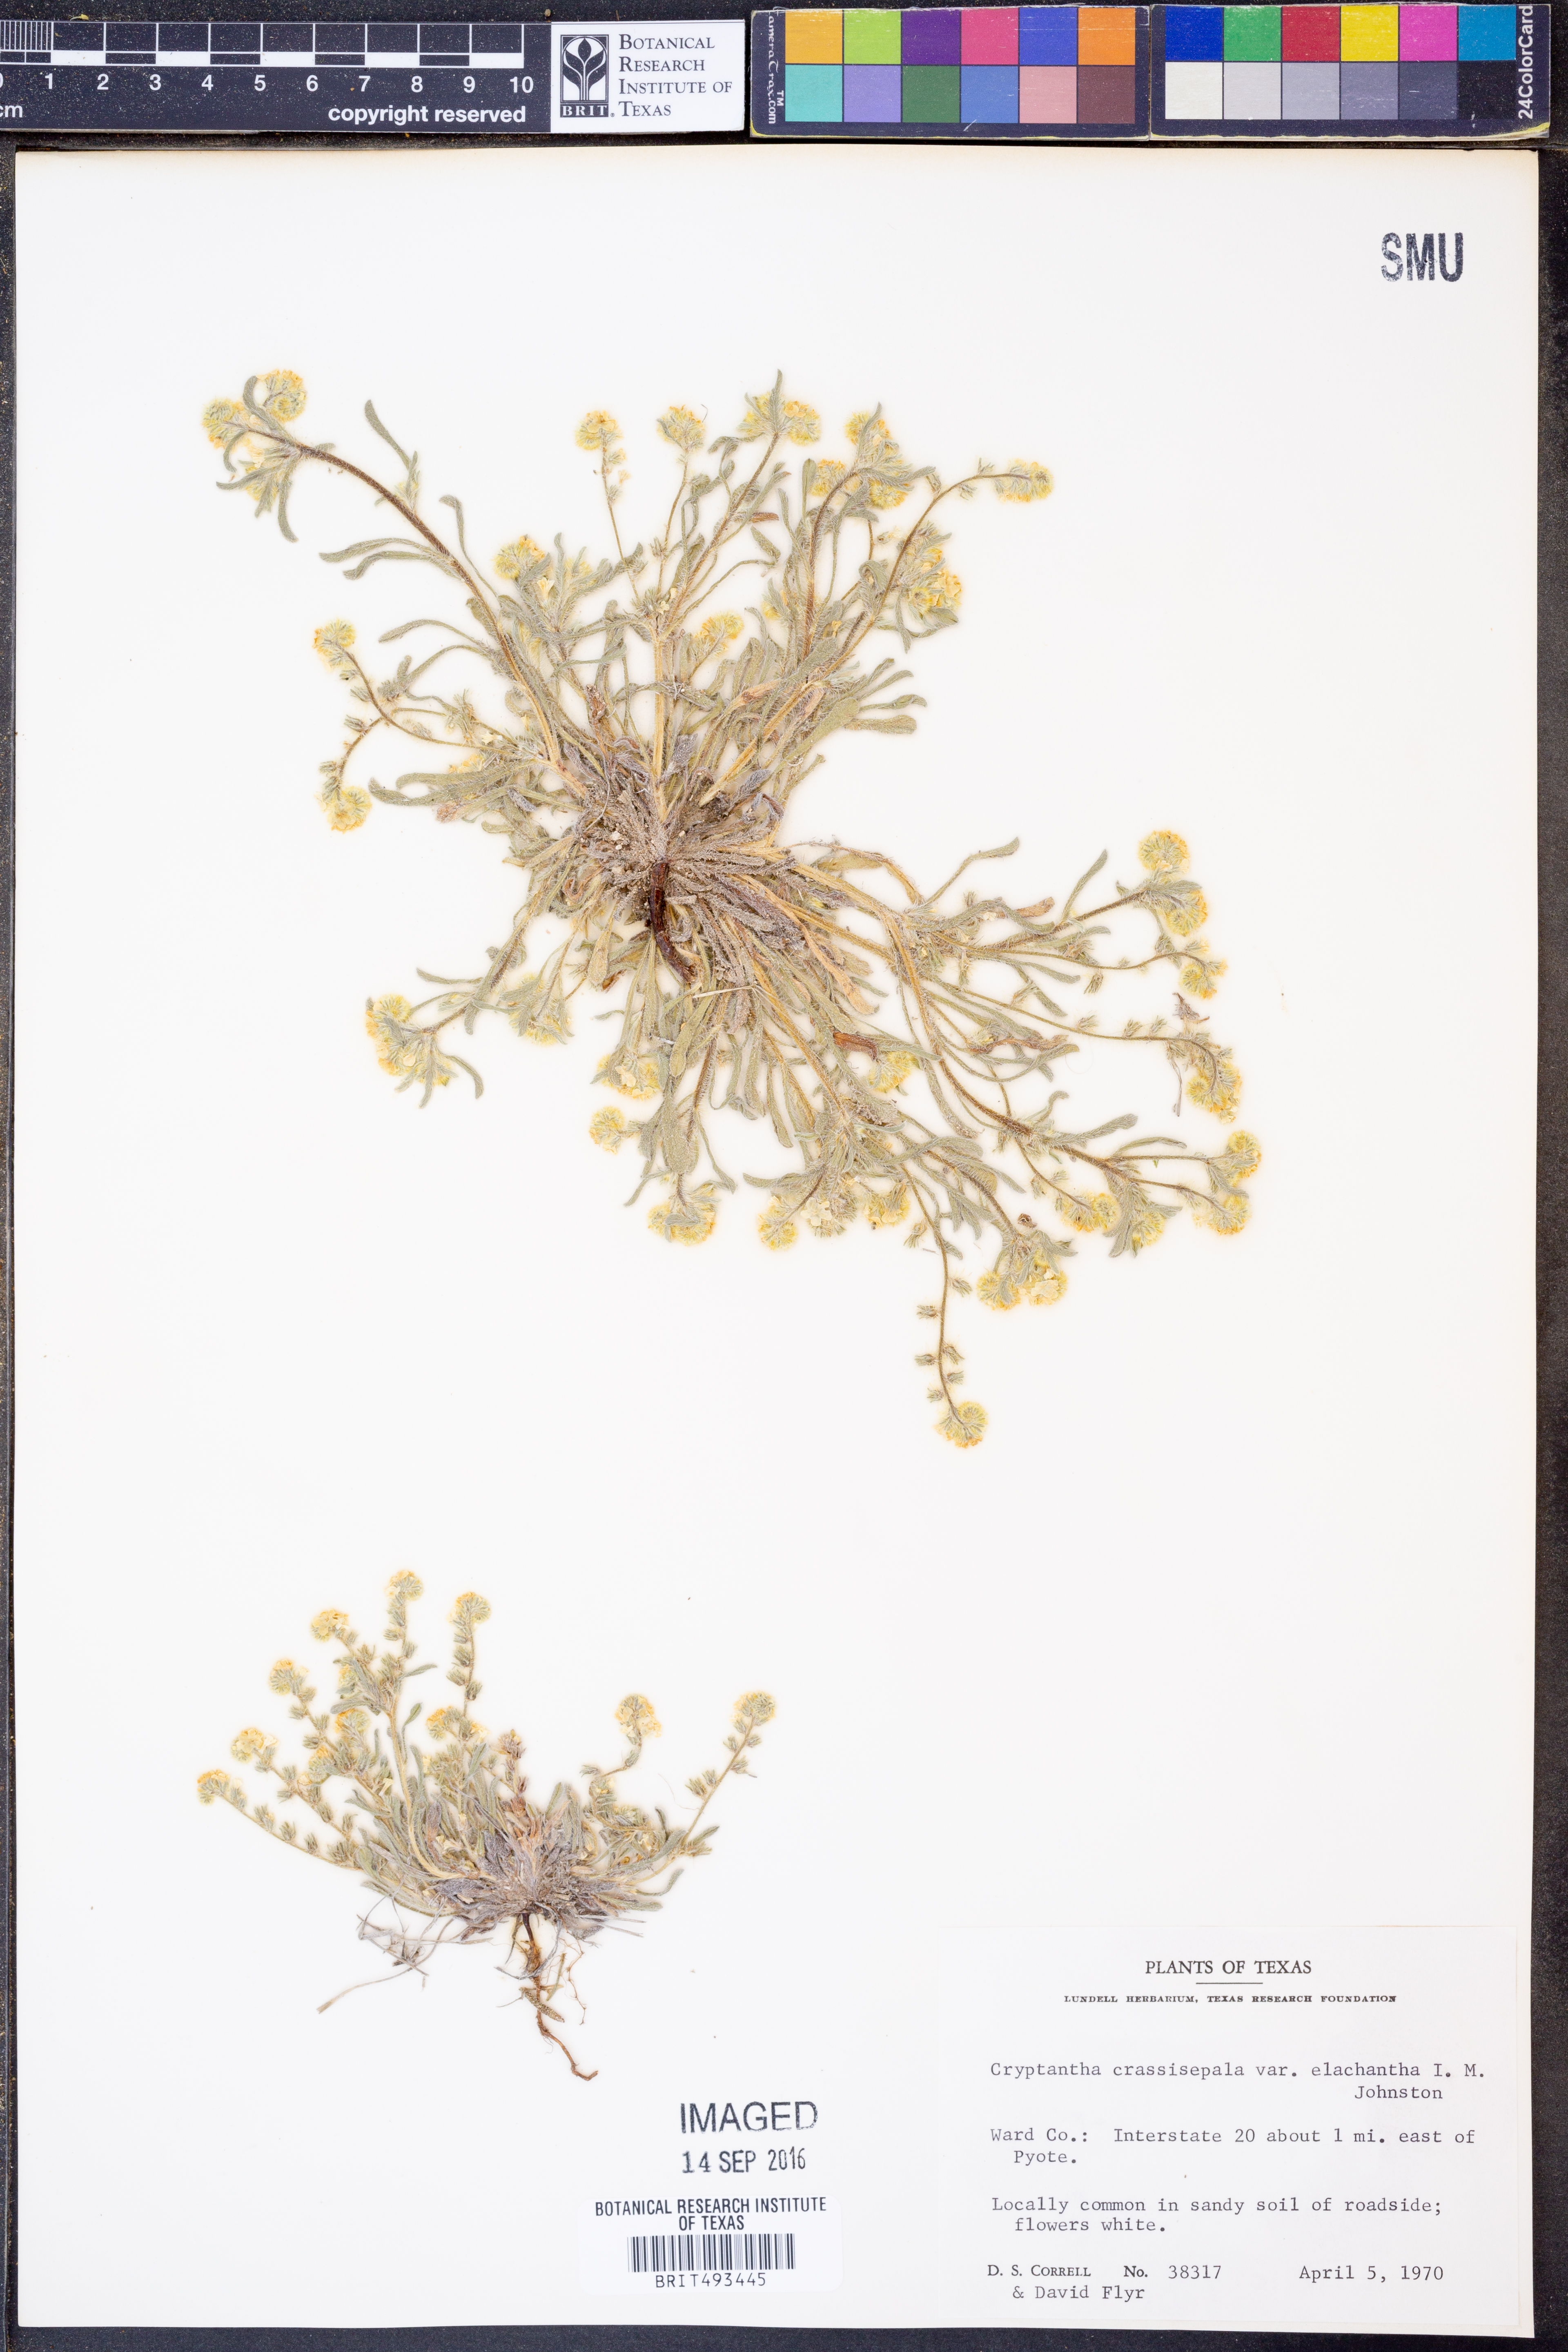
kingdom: Plantae
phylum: Tracheophyta
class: Magnoliopsida
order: Boraginales
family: Boraginaceae
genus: Cryptantha
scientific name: Cryptantha crassisepala
